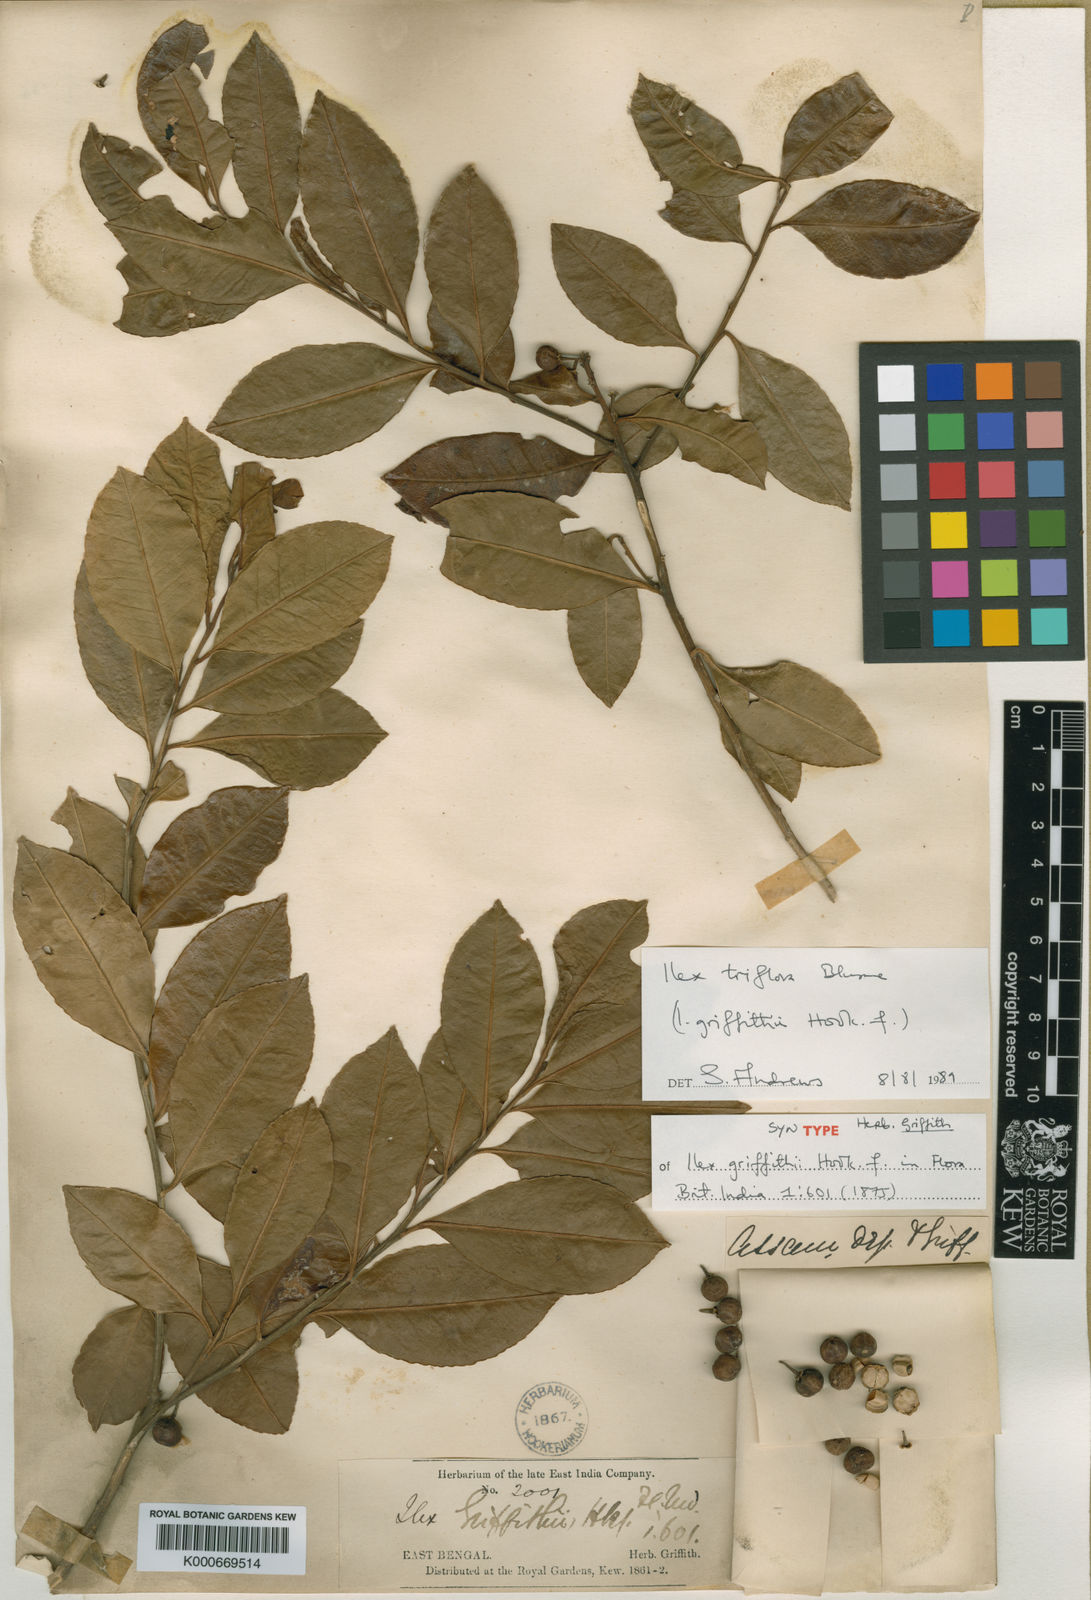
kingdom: Plantae
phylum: Tracheophyta
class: Magnoliopsida
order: Aquifoliales
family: Aquifoliaceae
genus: Ilex
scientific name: Ilex triflora
